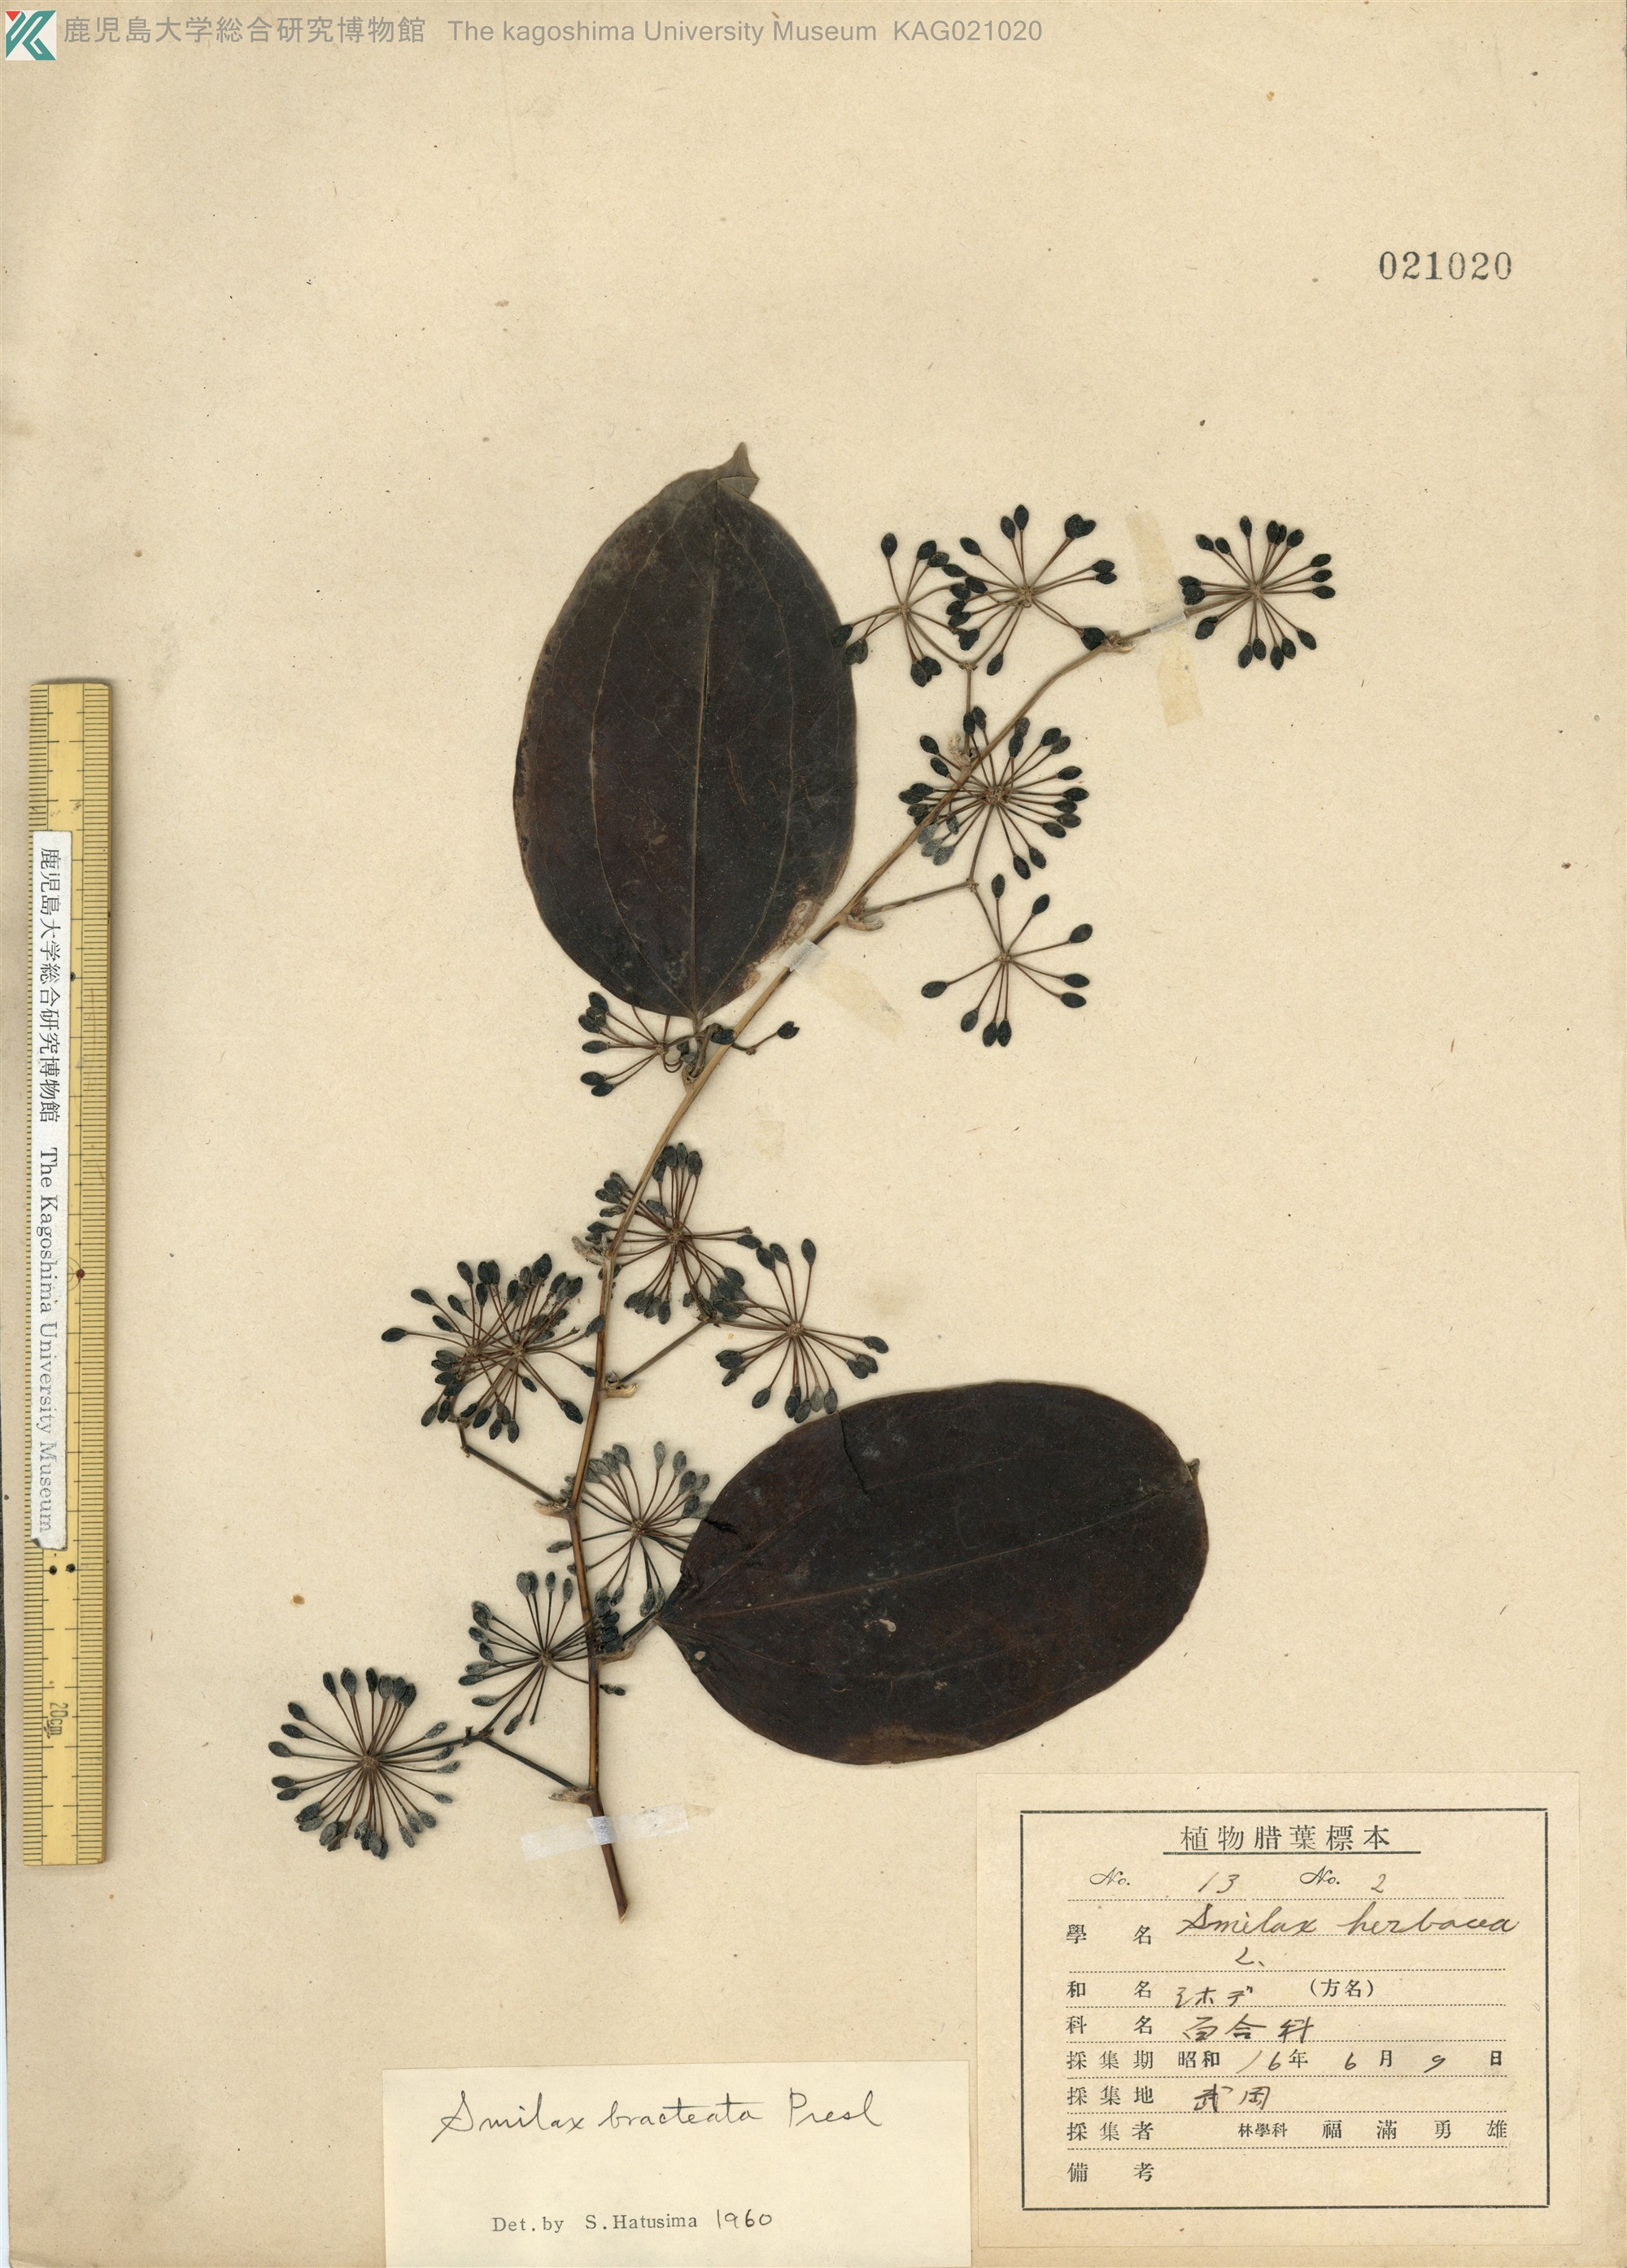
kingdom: Plantae
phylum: Tracheophyta
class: Liliopsida
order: Liliales
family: Smilacaceae
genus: Smilax
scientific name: Smilax bracteata
